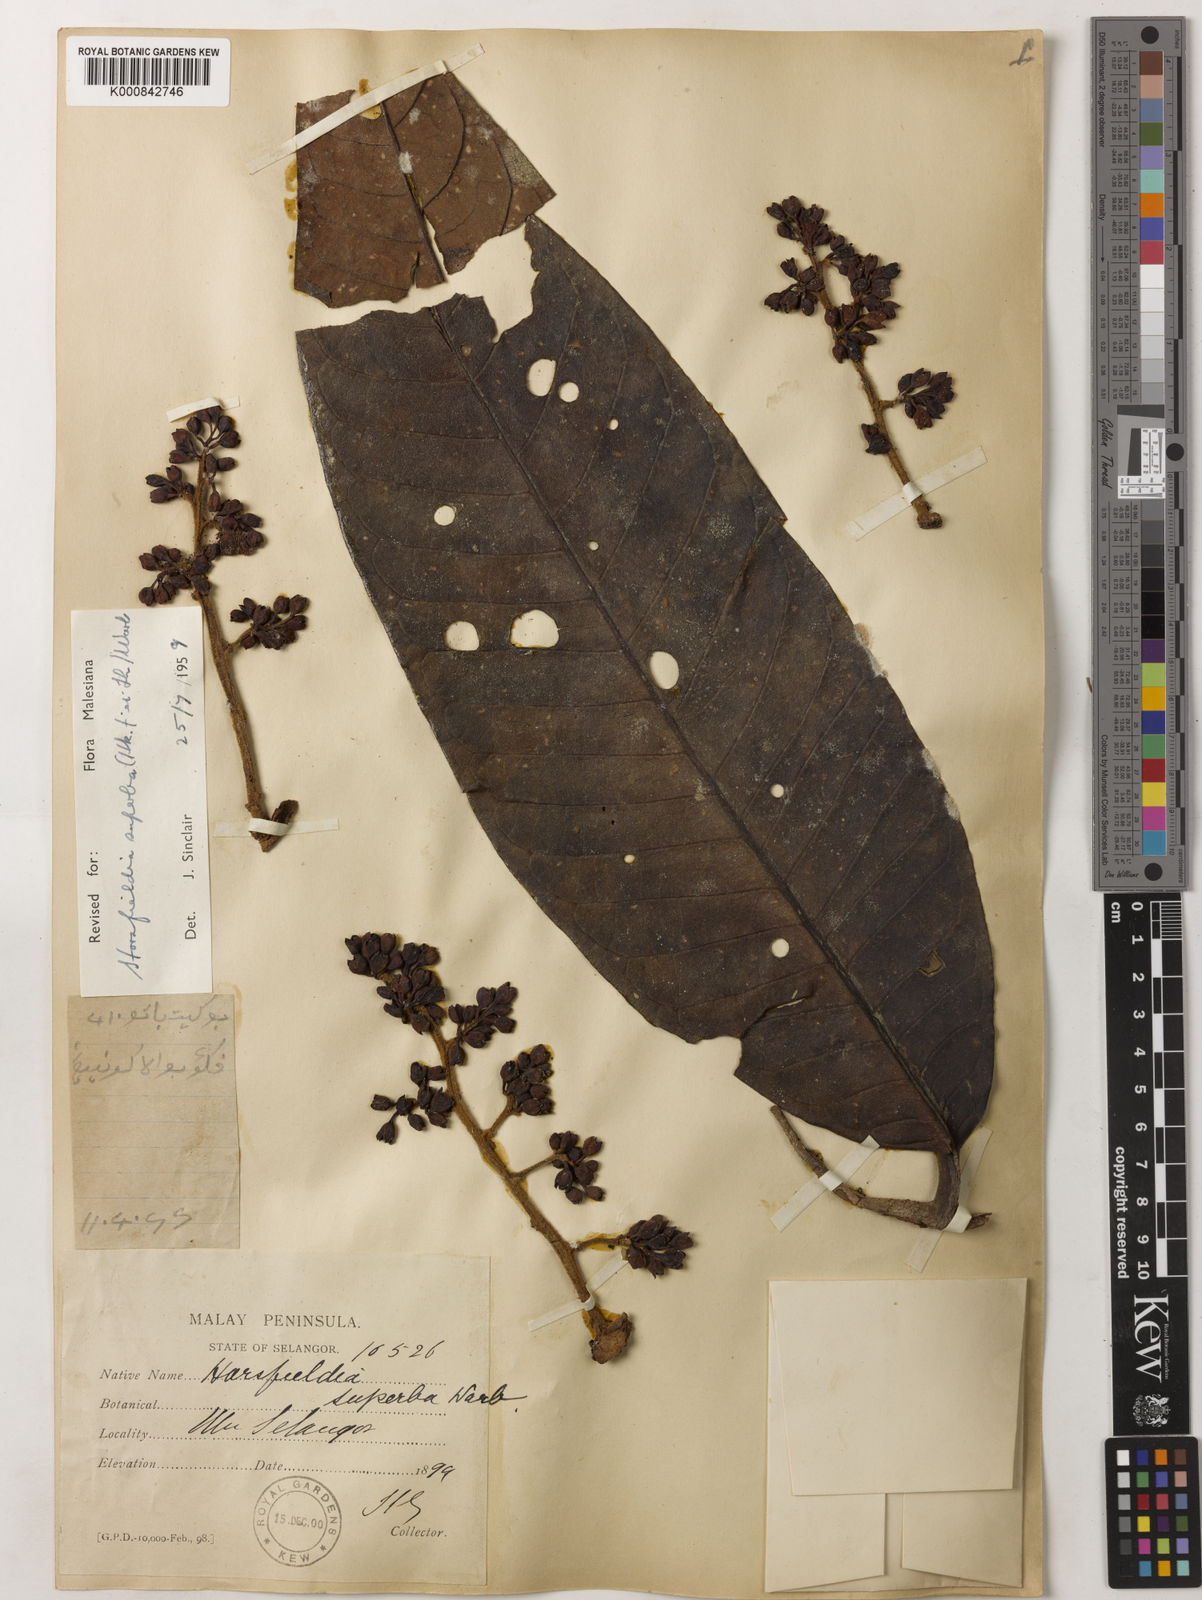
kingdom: Plantae
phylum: Tracheophyta
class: Magnoliopsida
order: Magnoliales
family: Myristicaceae
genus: Horsfieldia
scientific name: Horsfieldia superba
